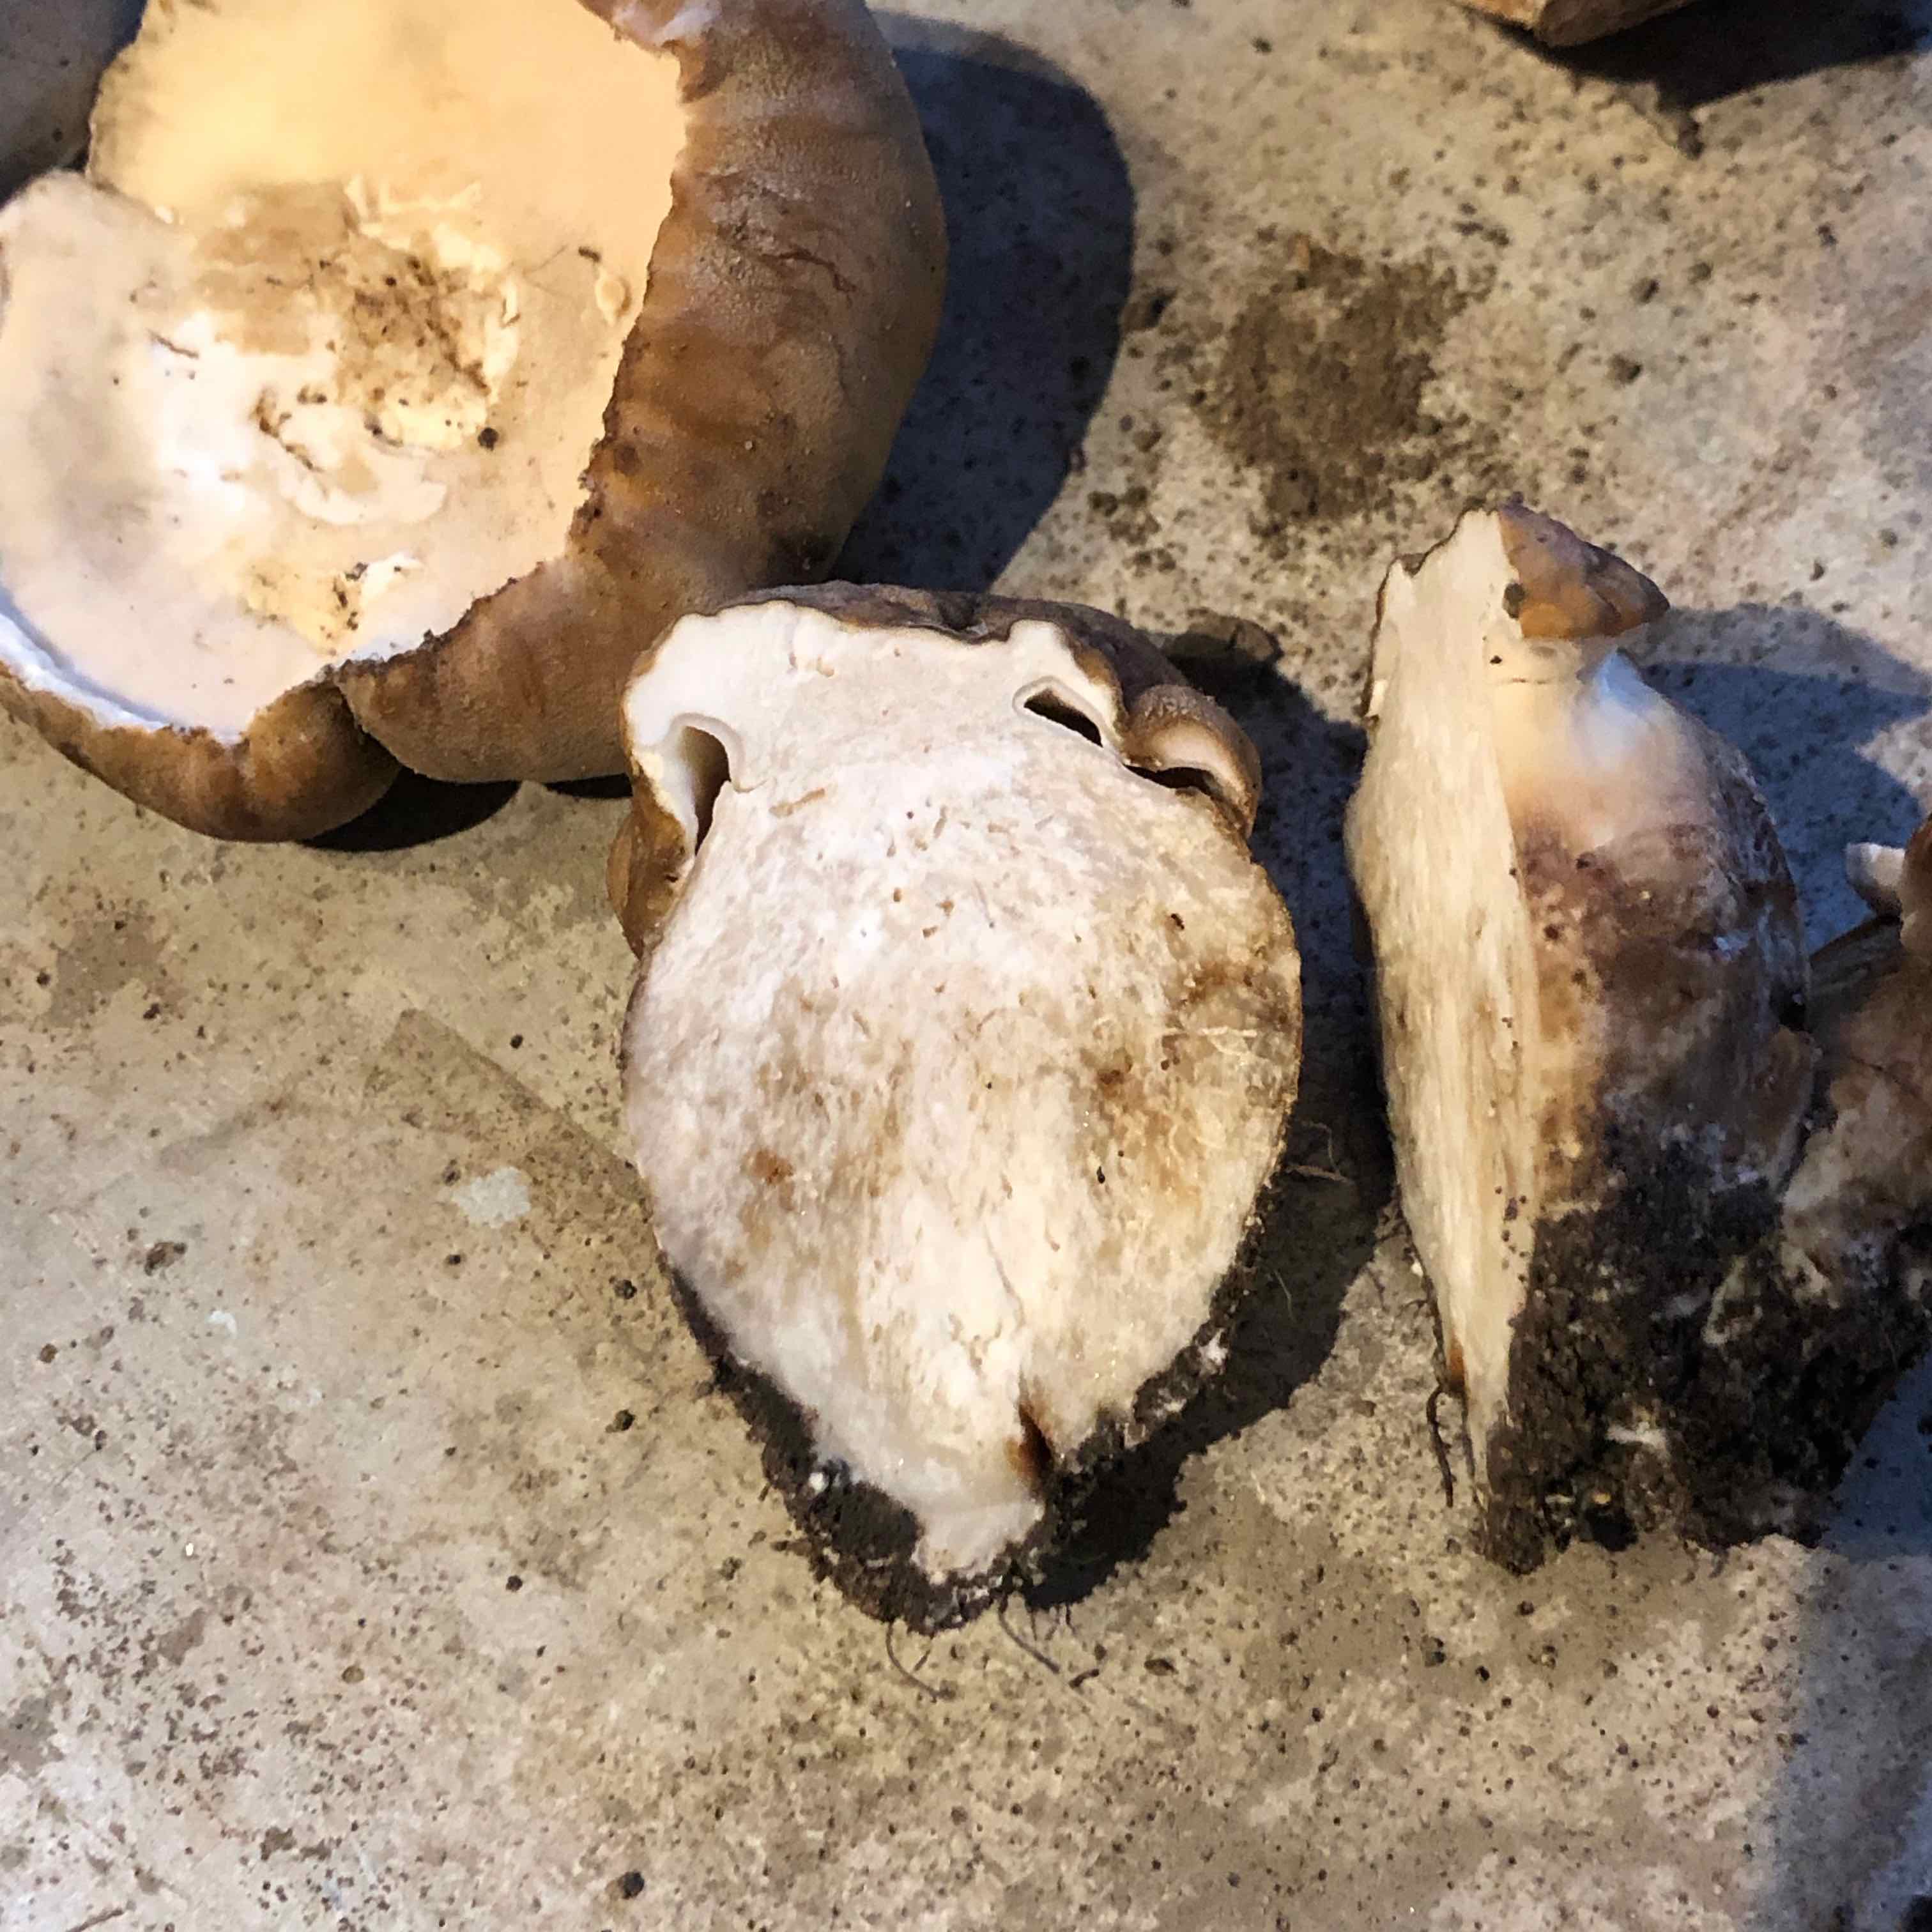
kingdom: Fungi
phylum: Basidiomycota
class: Agaricomycetes
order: Boletales
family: Boletaceae
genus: Boletus
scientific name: Boletus reticulatus
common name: sommer-rørhat
